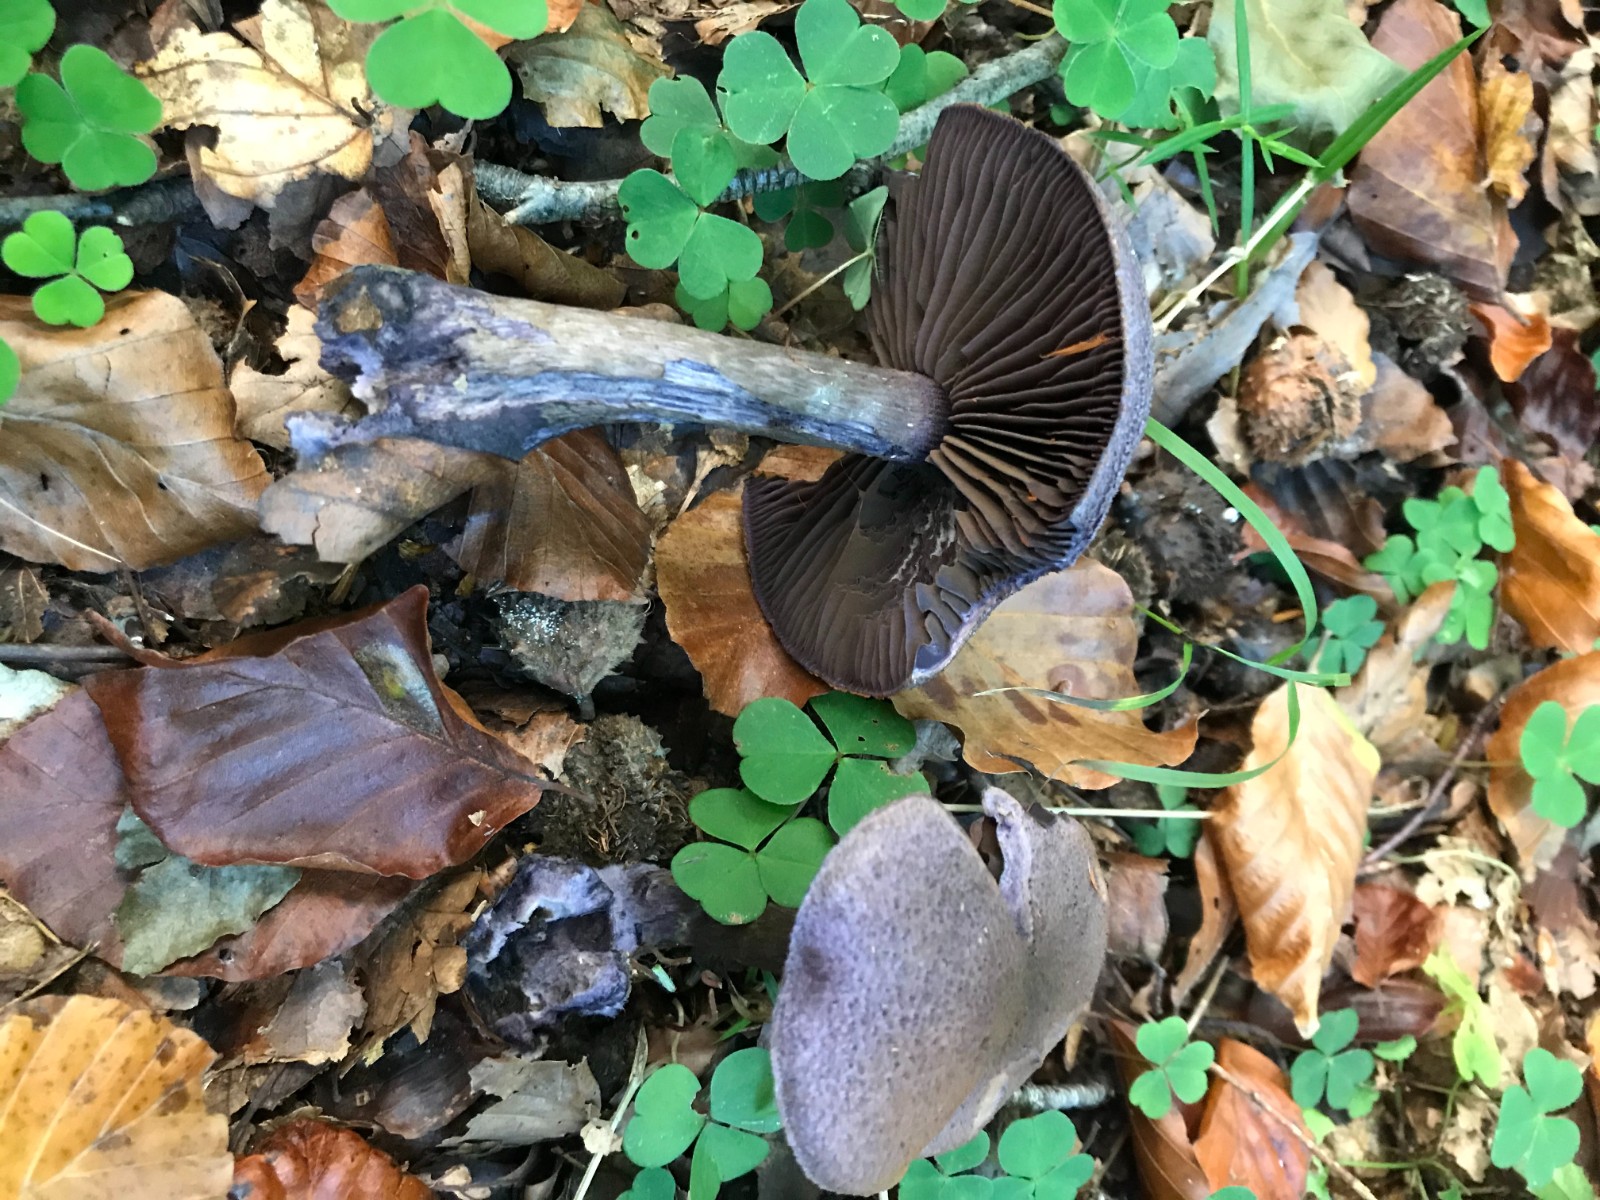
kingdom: Fungi
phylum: Basidiomycota
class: Agaricomycetes
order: Agaricales
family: Cortinariaceae
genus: Cortinarius
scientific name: Cortinarius violaceus
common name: mørkviolet slørhat
